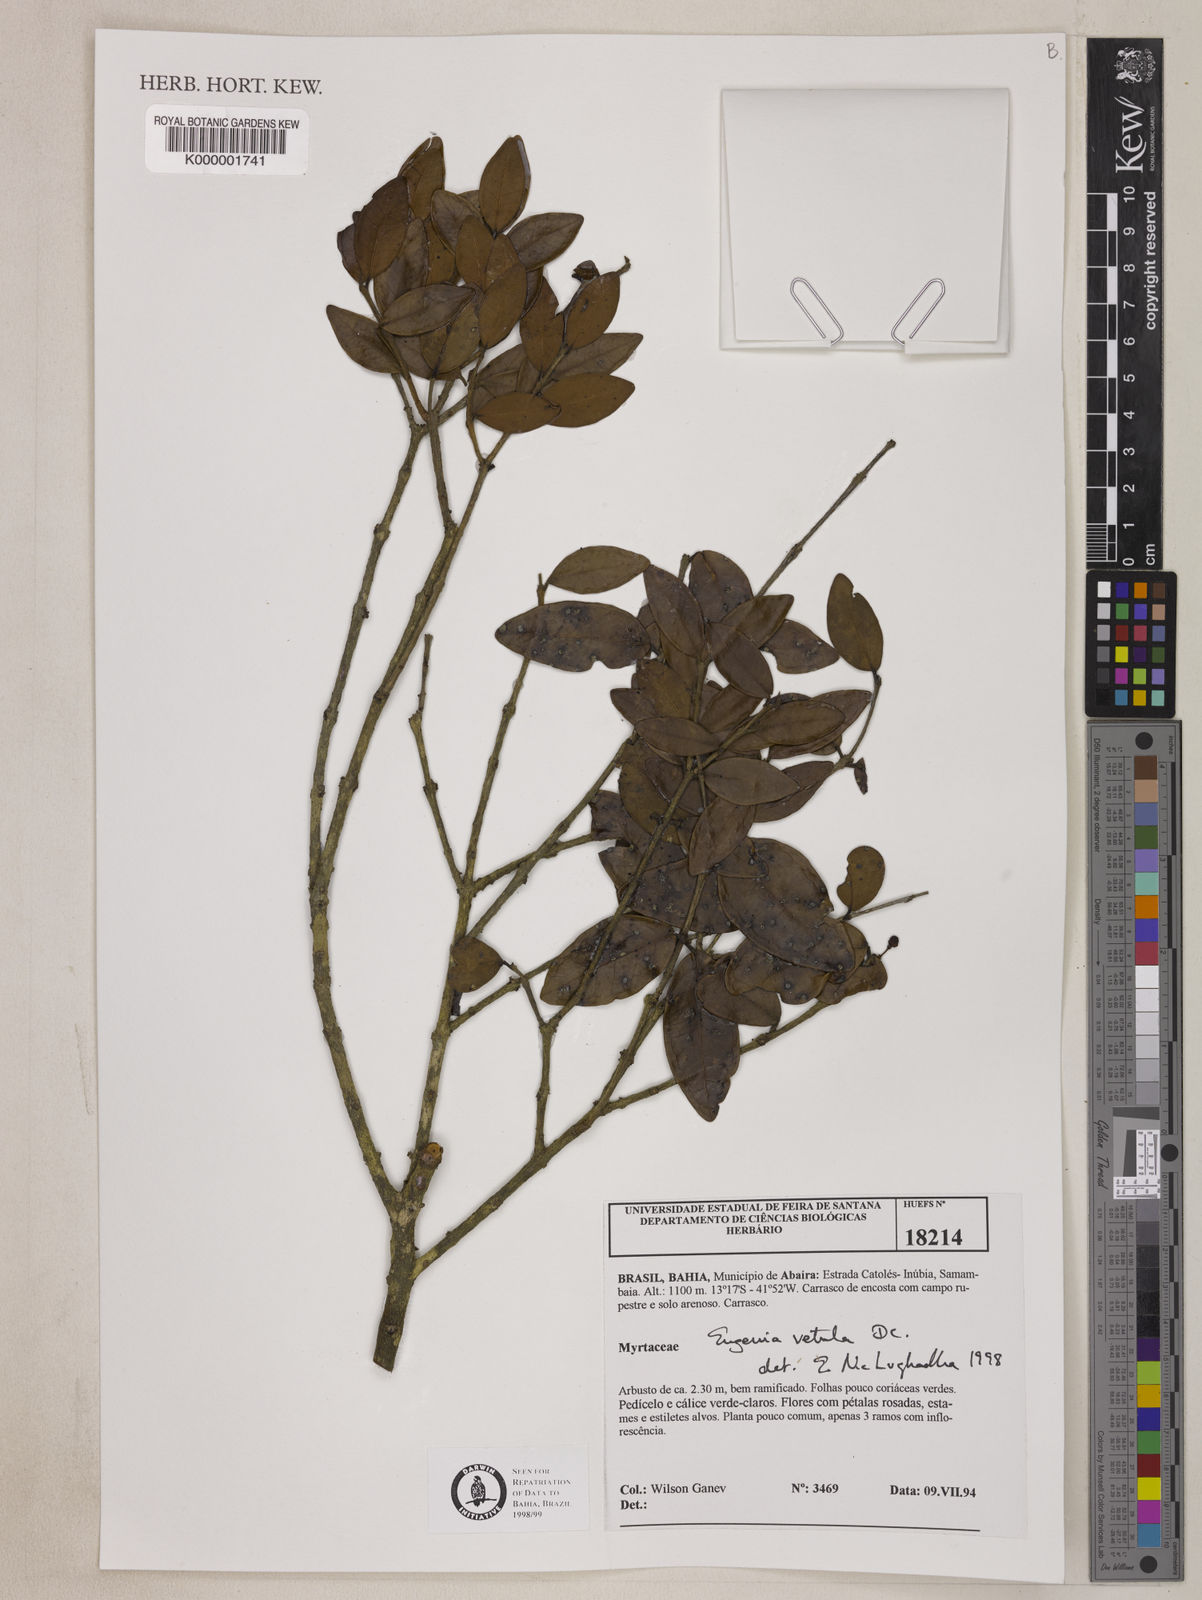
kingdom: Plantae
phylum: Tracheophyta
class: Magnoliopsida
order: Myrtales
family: Myrtaceae
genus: Eugenia
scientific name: Eugenia vetula
